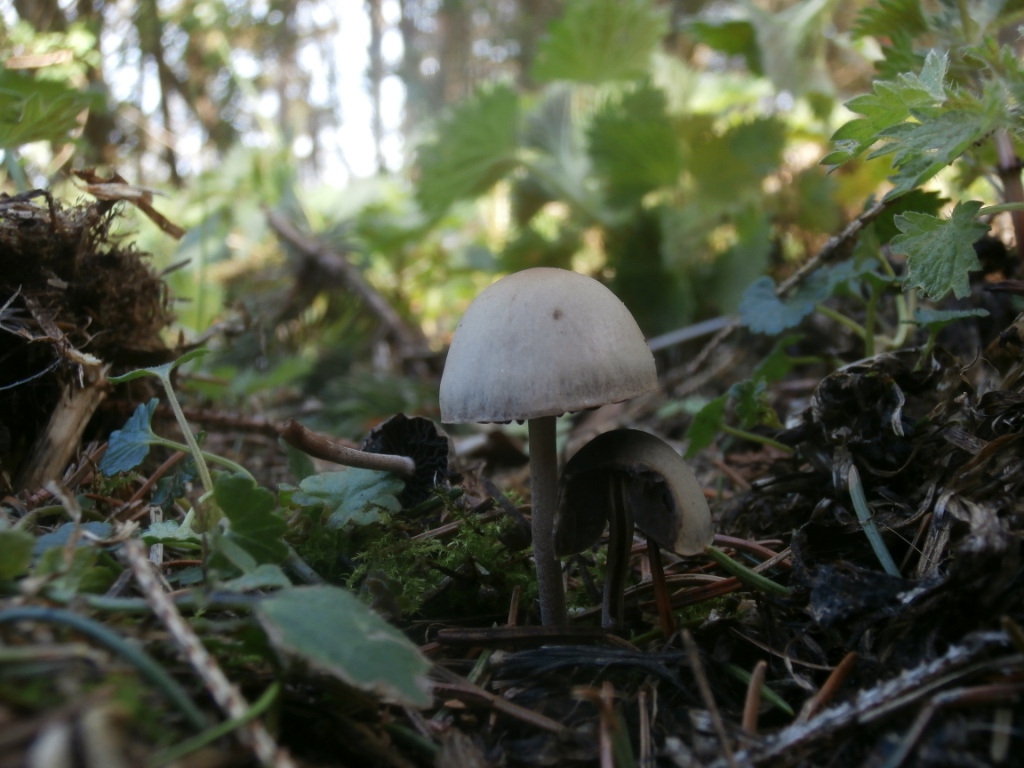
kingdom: Fungi
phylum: Basidiomycota
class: Agaricomycetes
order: Agaricales
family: Bolbitiaceae
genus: Panaeolus
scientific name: Panaeolus papilionaceus
